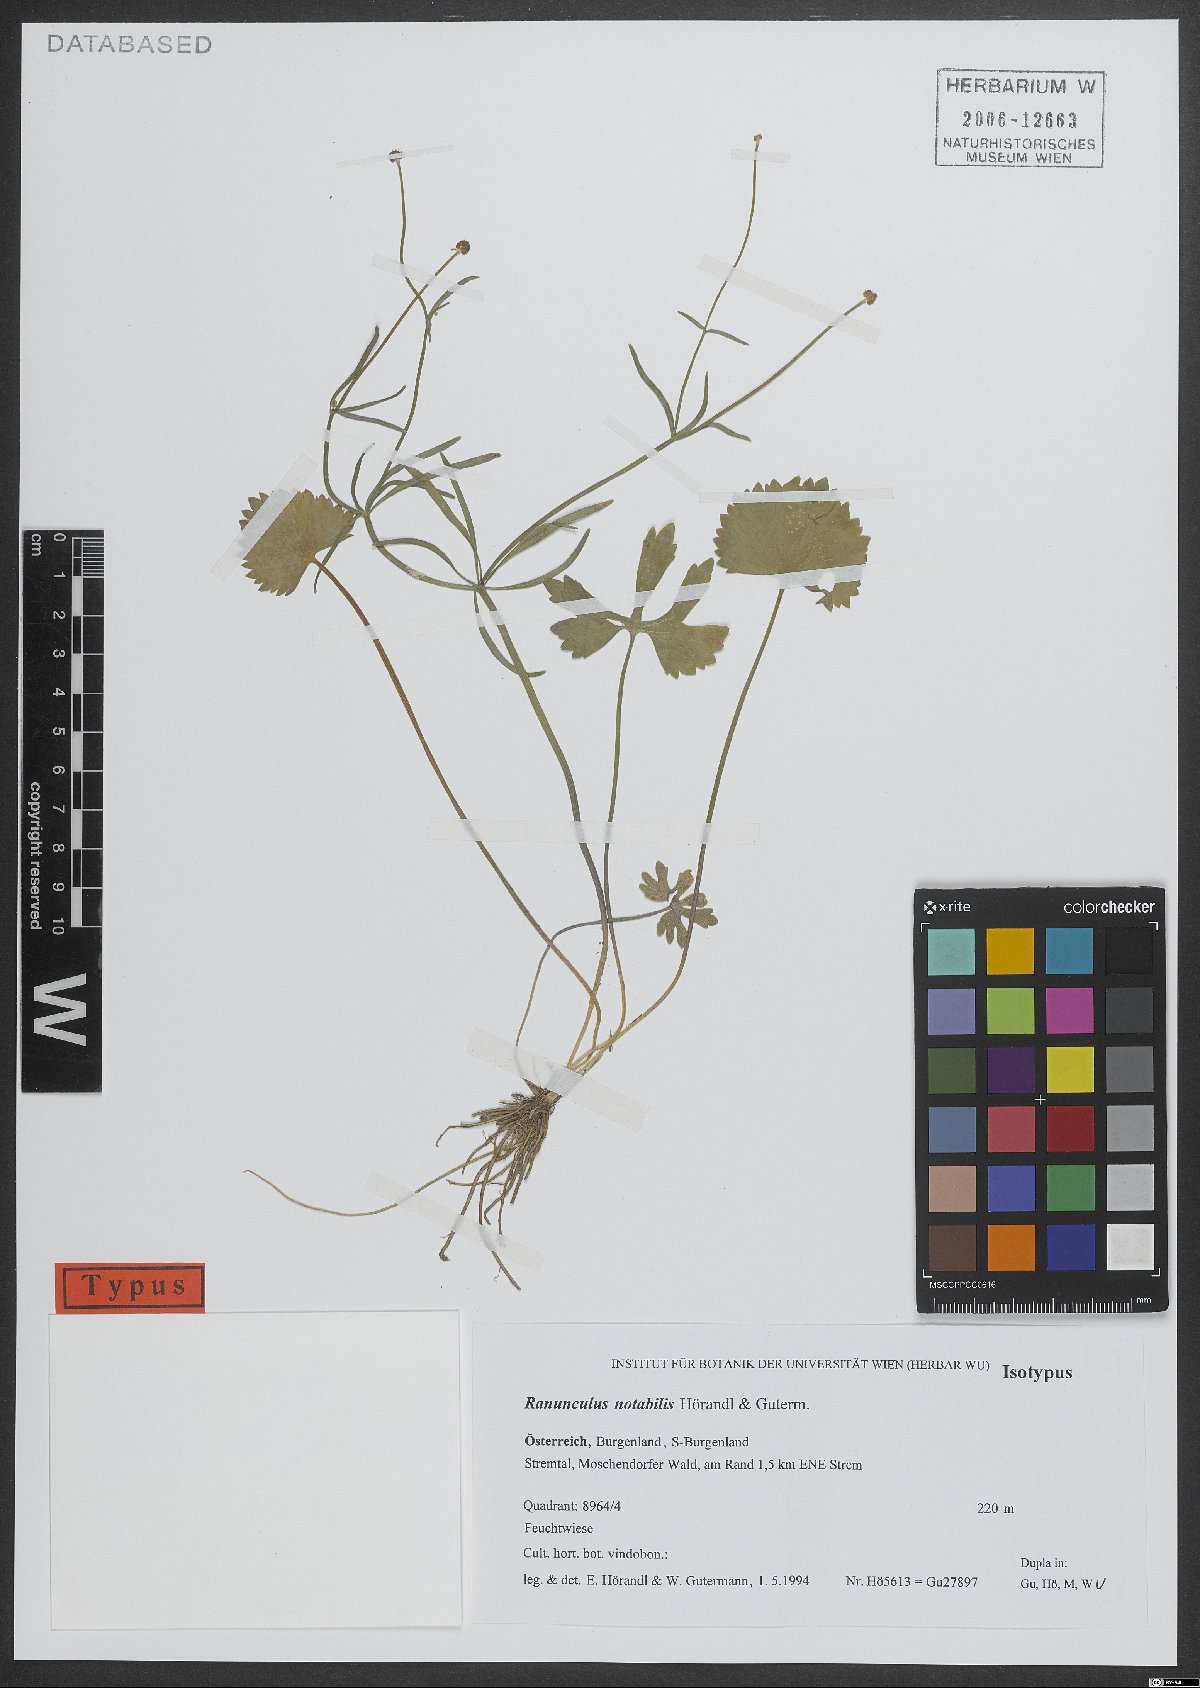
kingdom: Plantae
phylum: Tracheophyta
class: Magnoliopsida
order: Ranunculales
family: Ranunculaceae
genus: Ranunculus
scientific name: Ranunculus notabilis
